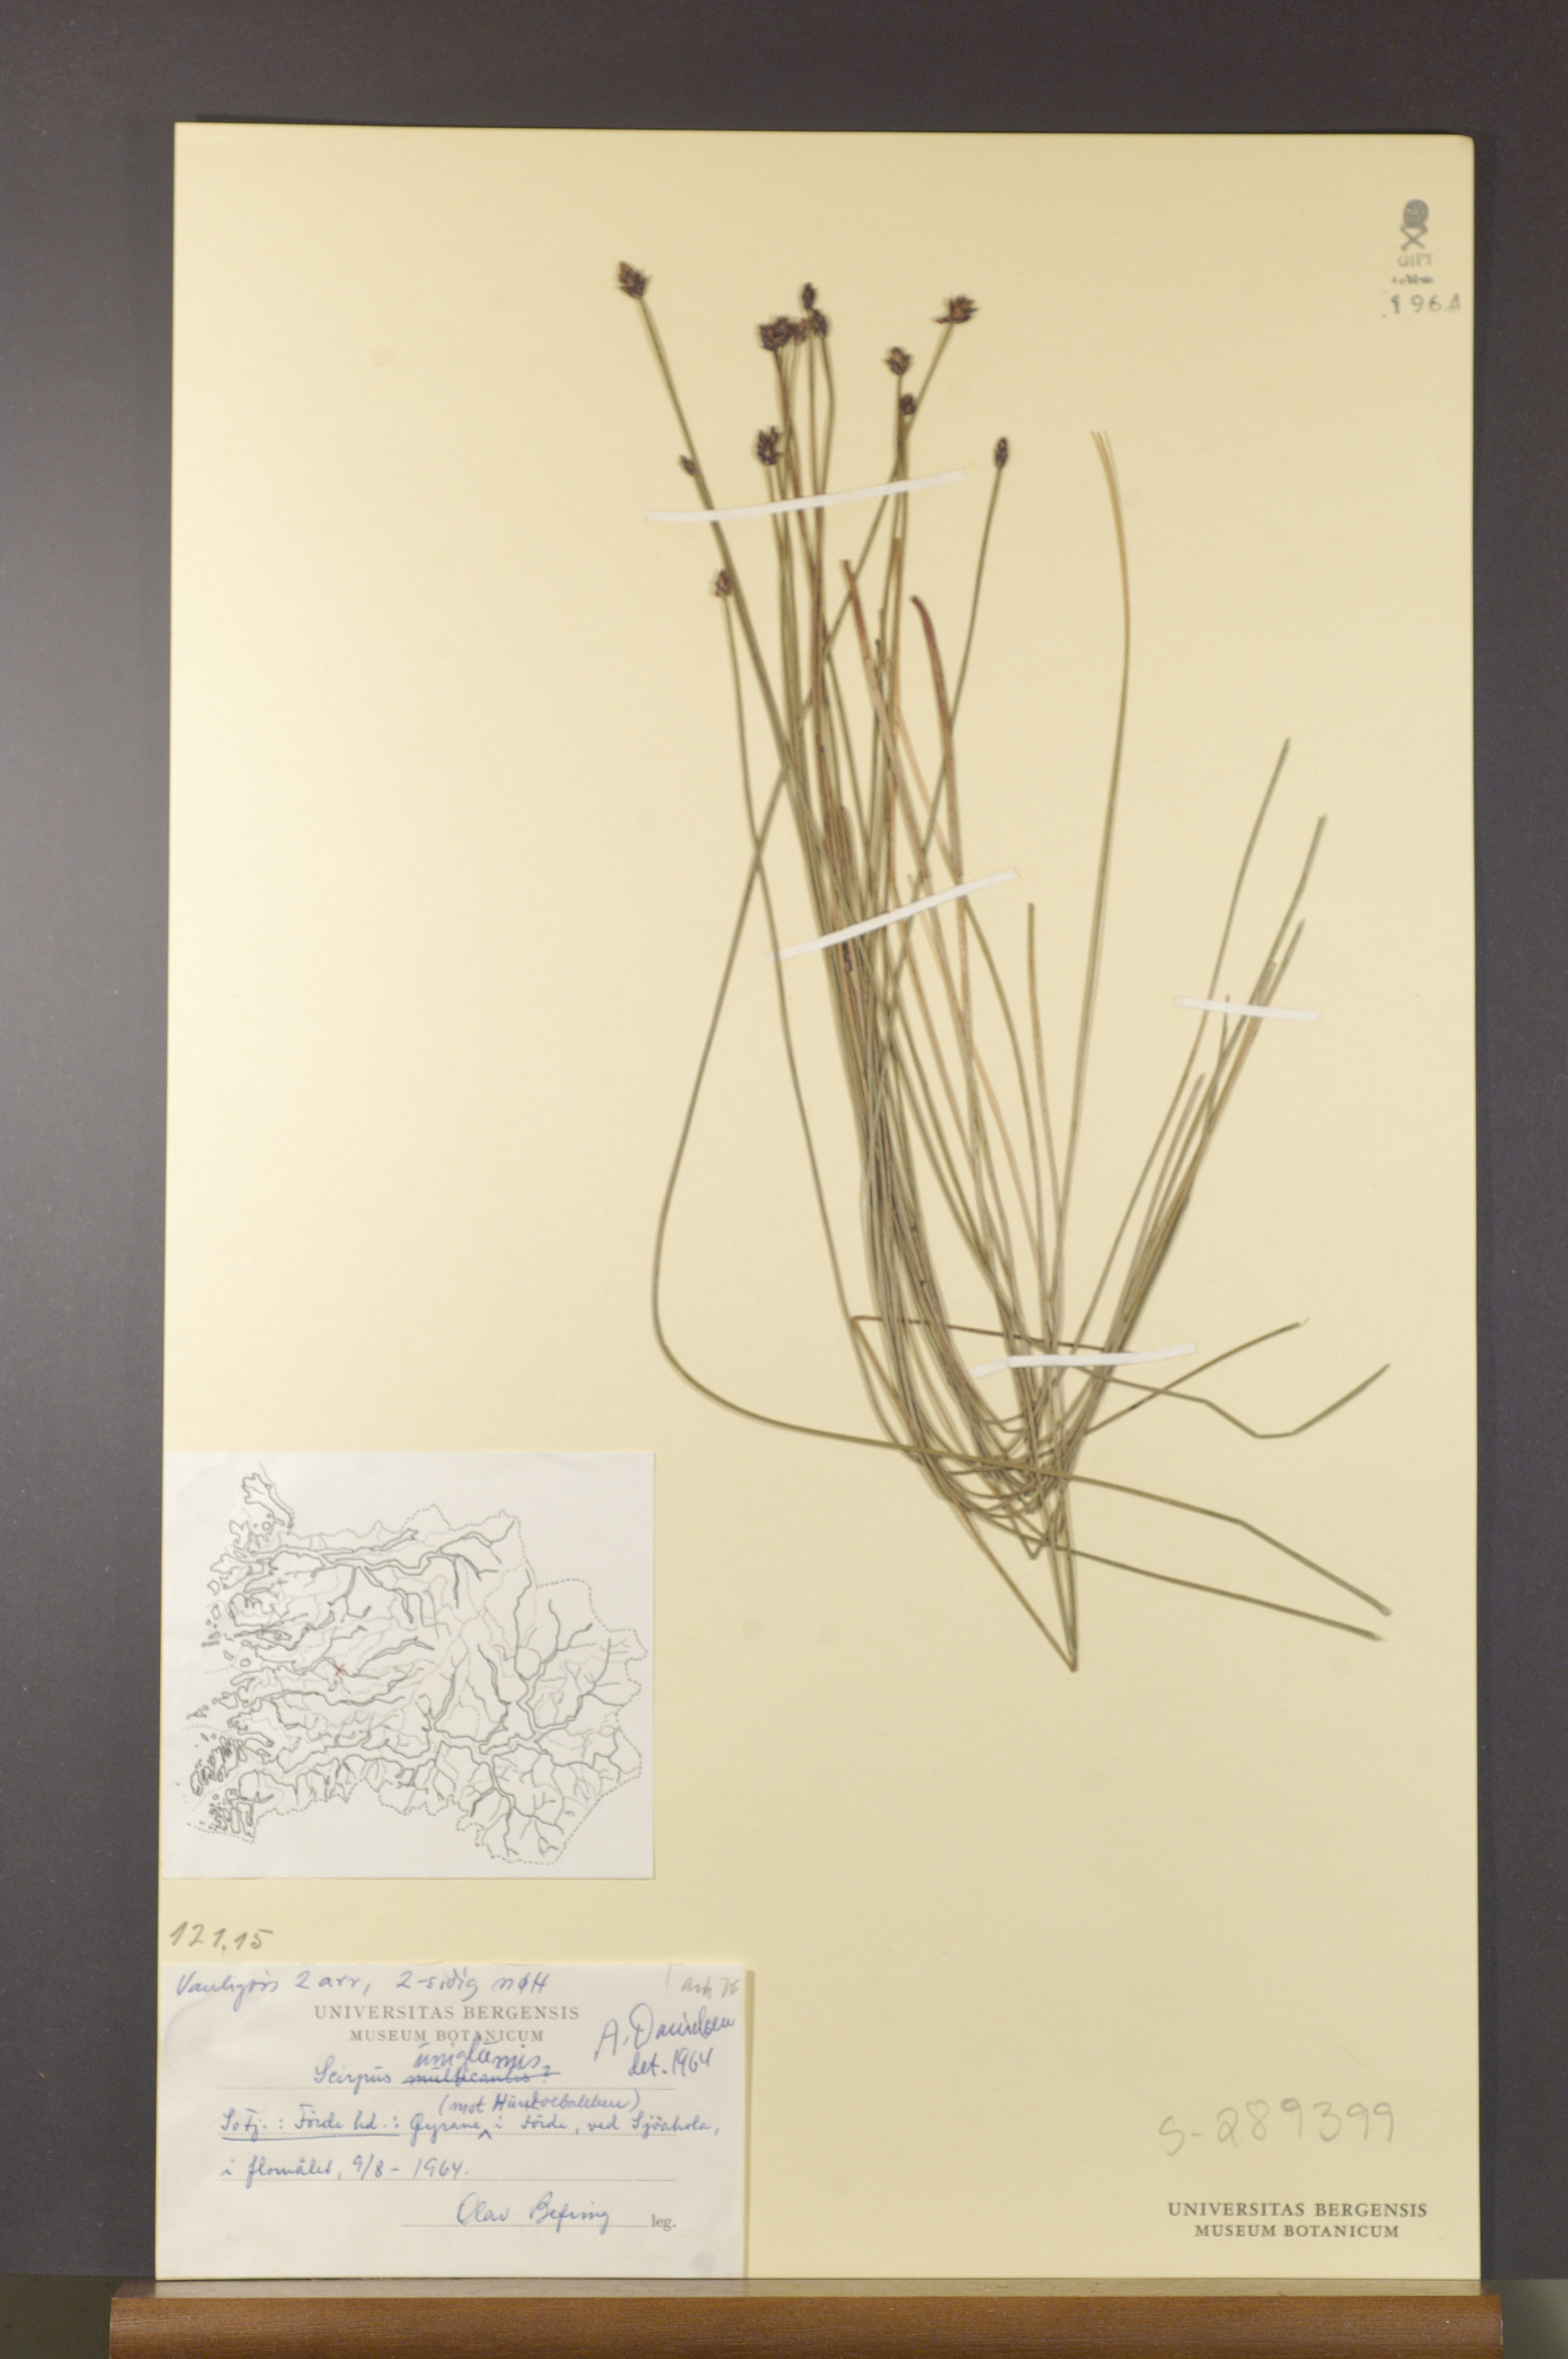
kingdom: Plantae
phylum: Tracheophyta
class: Liliopsida
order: Poales
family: Cyperaceae
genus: Eleocharis
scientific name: Eleocharis uniglumis
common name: Slender spike-rush
